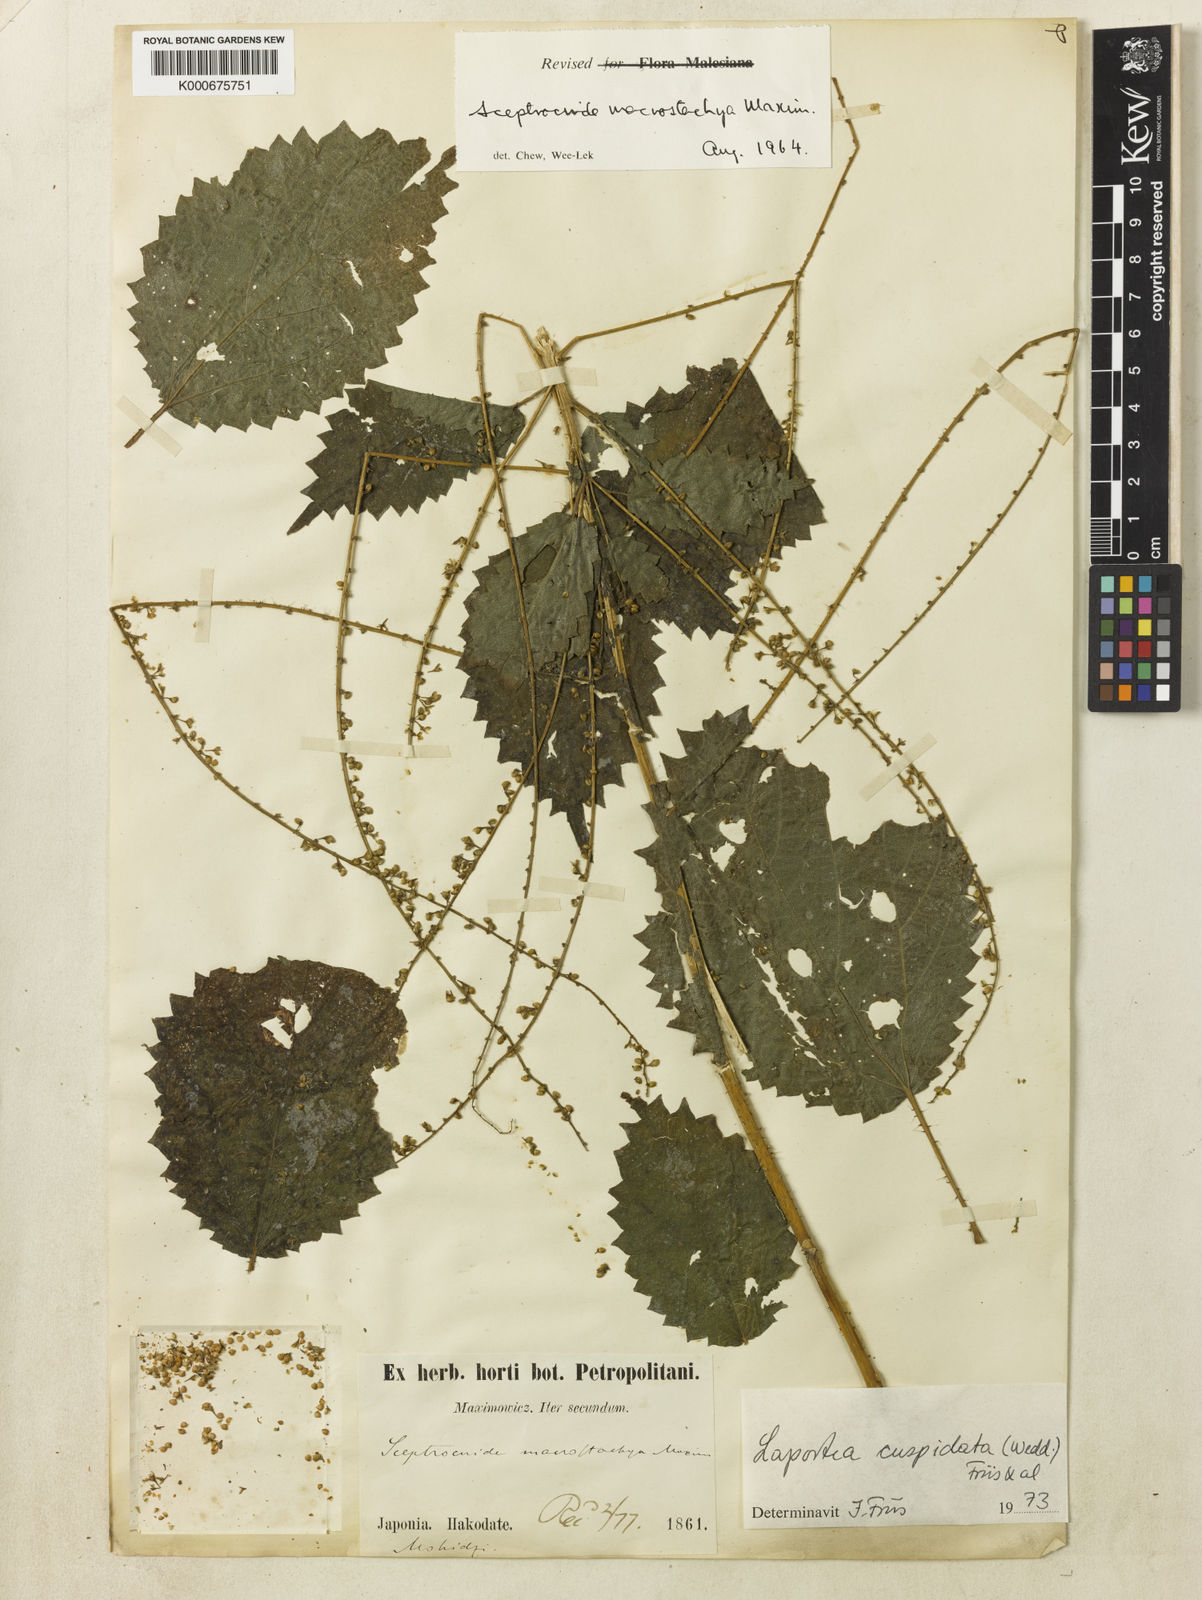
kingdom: Plantae
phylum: Tracheophyta
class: Magnoliopsida
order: Rosales
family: Urticaceae
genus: Laportea
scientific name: Laportea cuspidata
